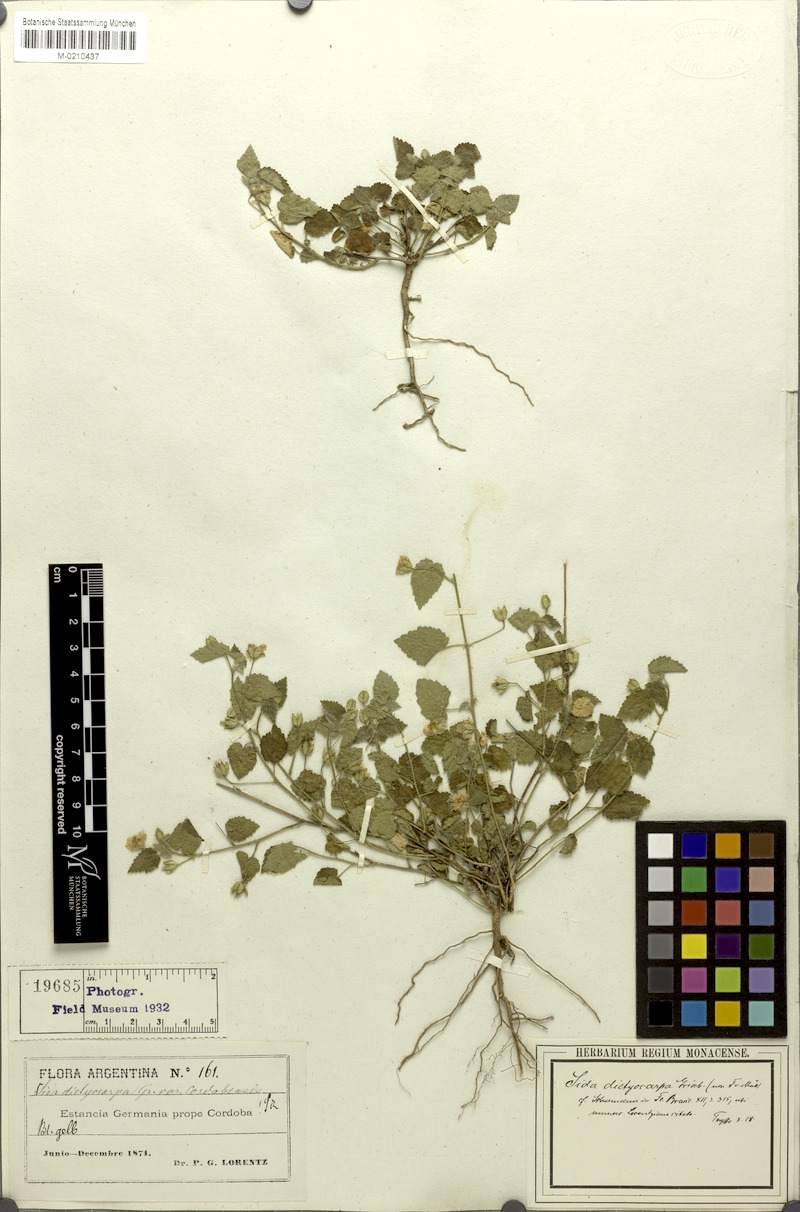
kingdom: Plantae
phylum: Tracheophyta
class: Magnoliopsida
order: Malvales
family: Malvaceae
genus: Sida
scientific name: Sida glabra
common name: Smooth fanpetals
